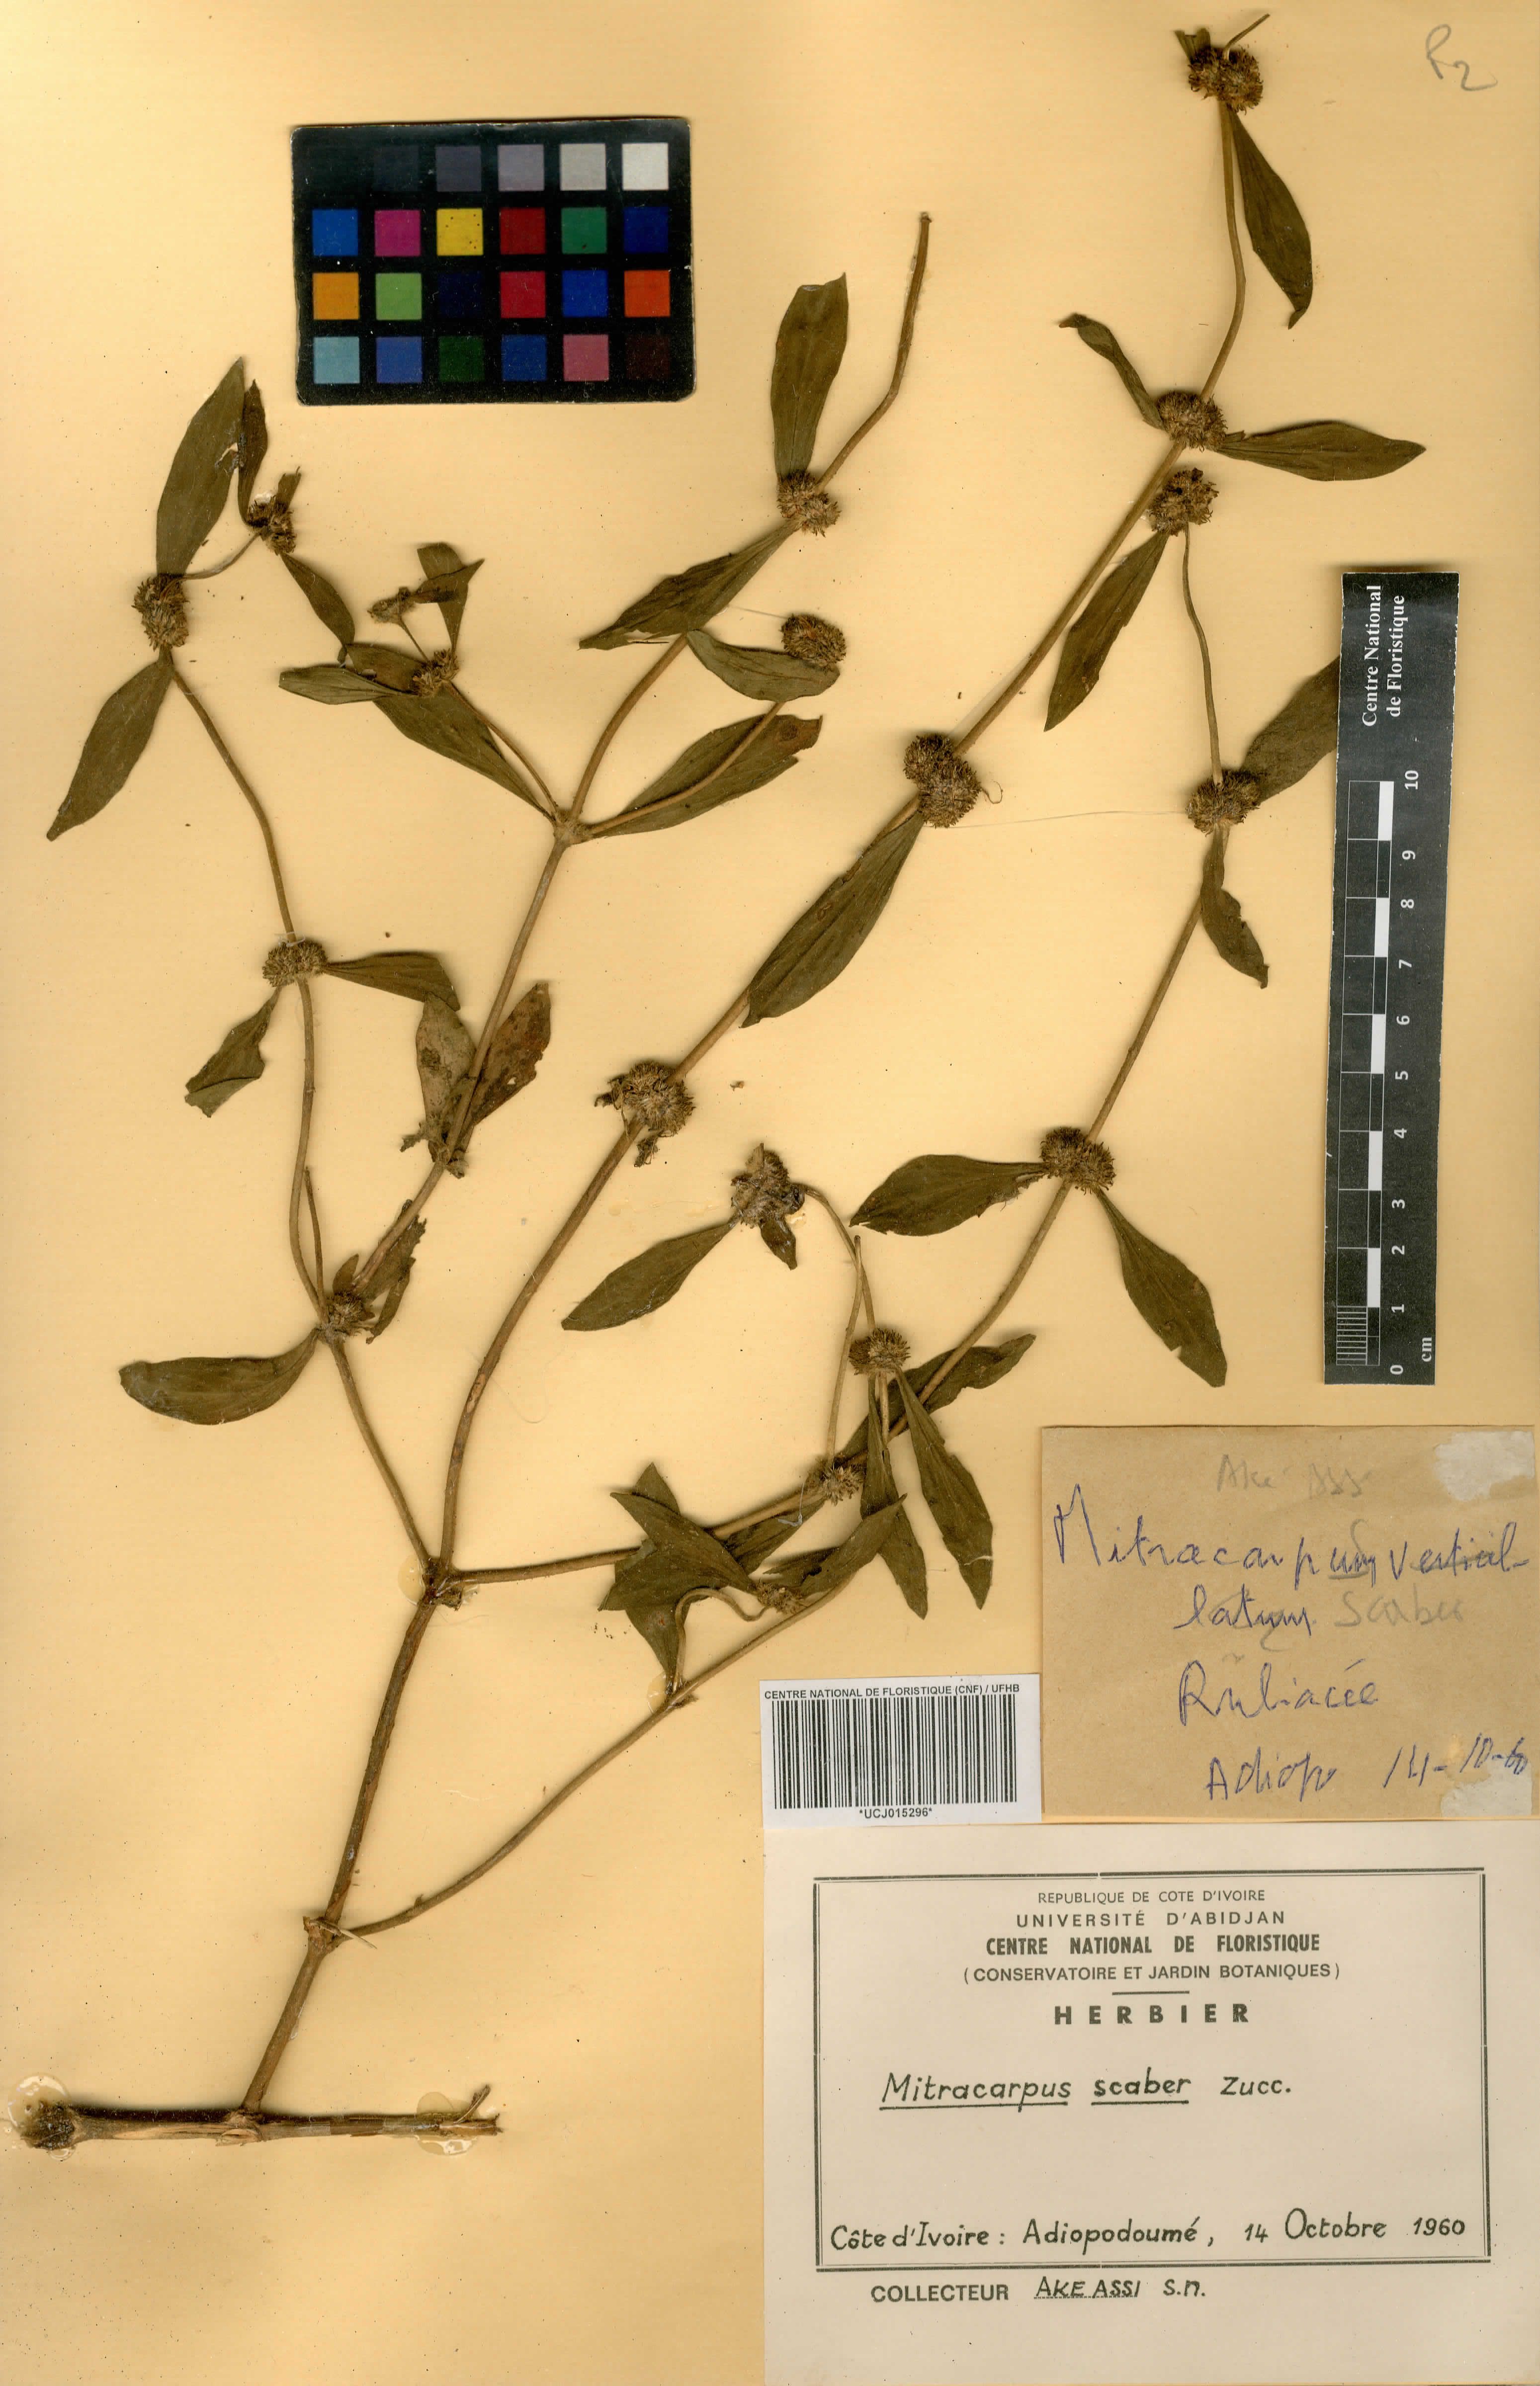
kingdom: Plantae
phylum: Tracheophyta
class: Magnoliopsida
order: Gentianales
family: Rubiaceae
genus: Mitracarpus
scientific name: Mitracarpus hirtus
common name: Tropical girdlepod
